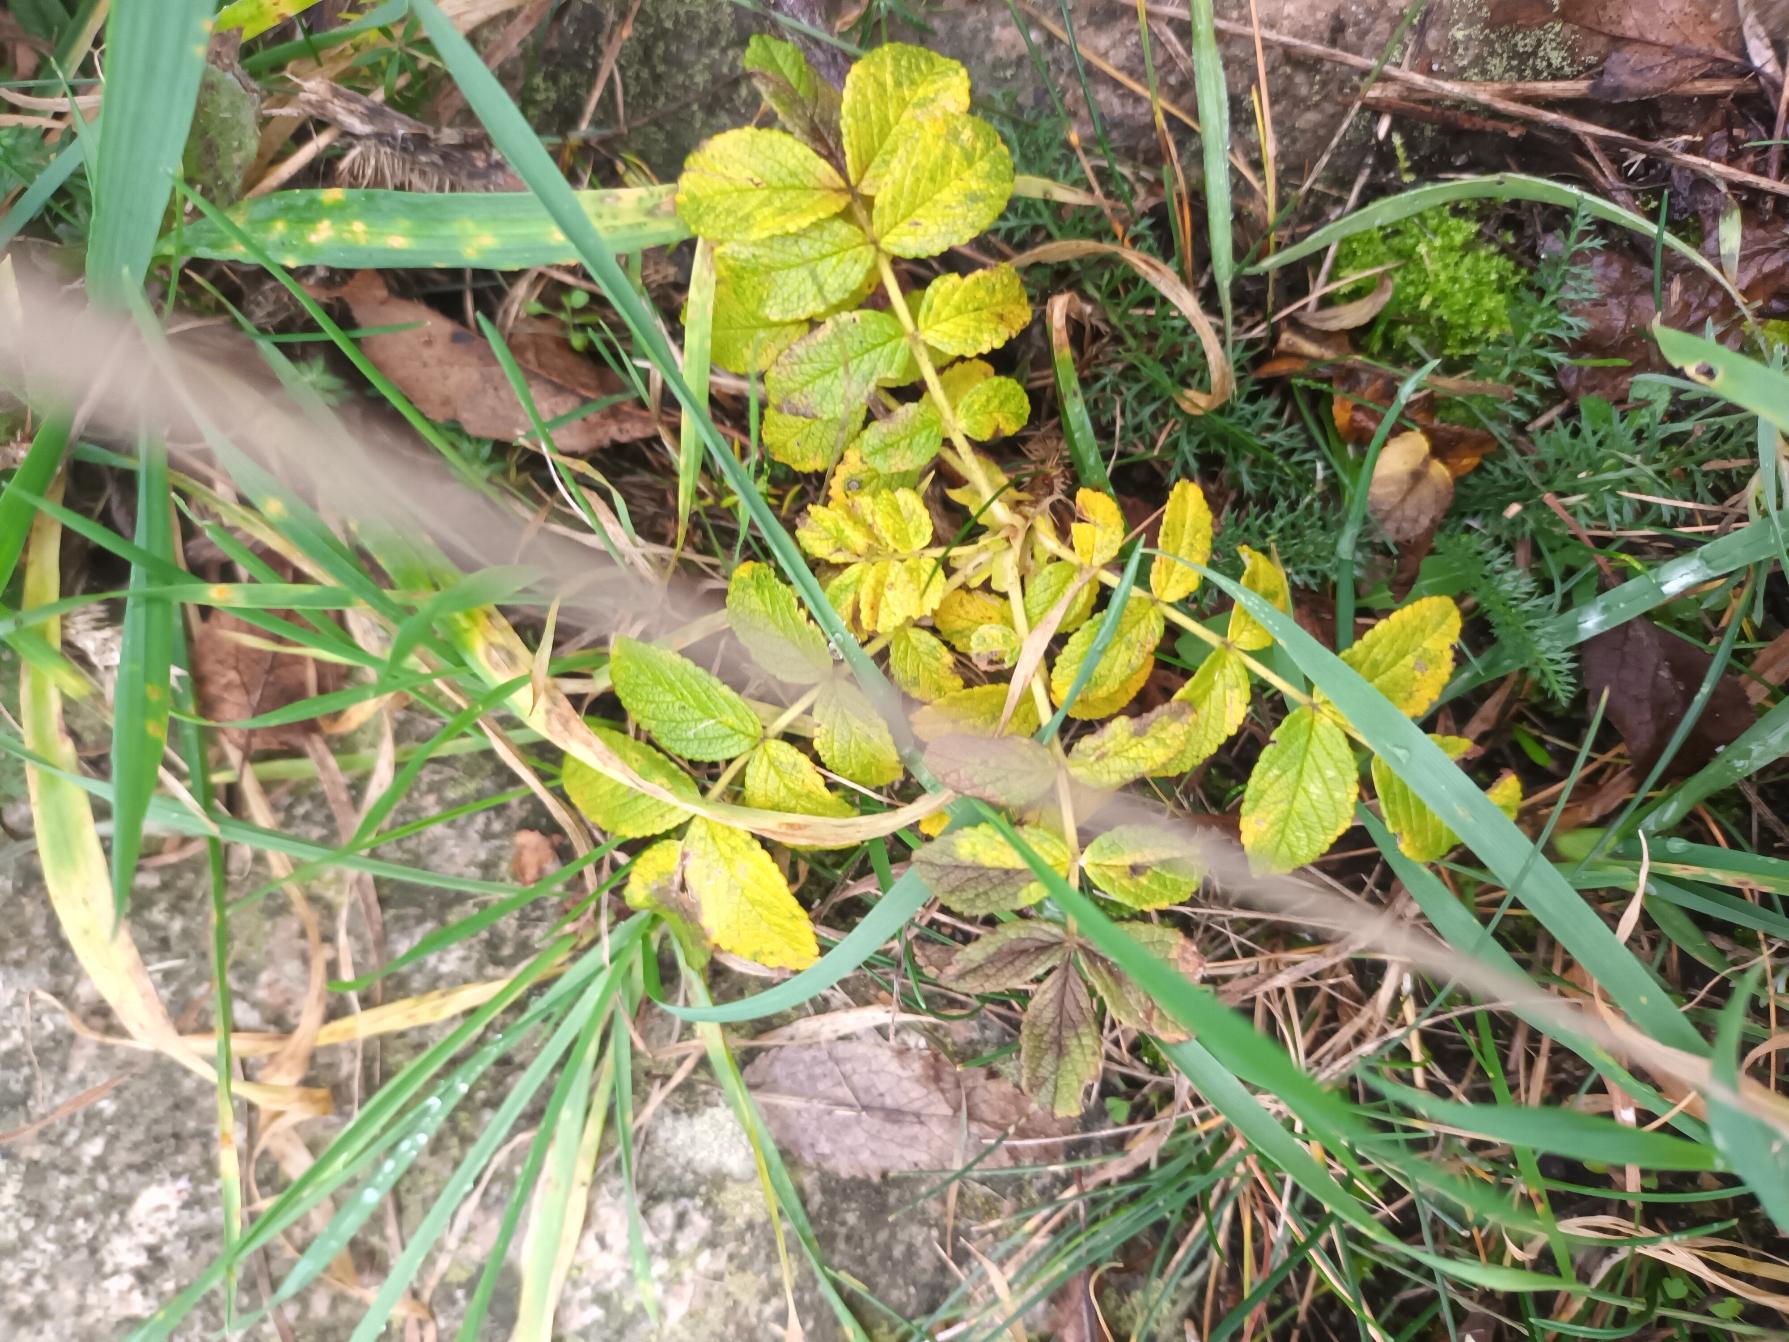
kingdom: Plantae
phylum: Tracheophyta
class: Magnoliopsida
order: Rosales
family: Rosaceae
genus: Rosa
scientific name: Rosa rugosa
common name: Rynket rose
